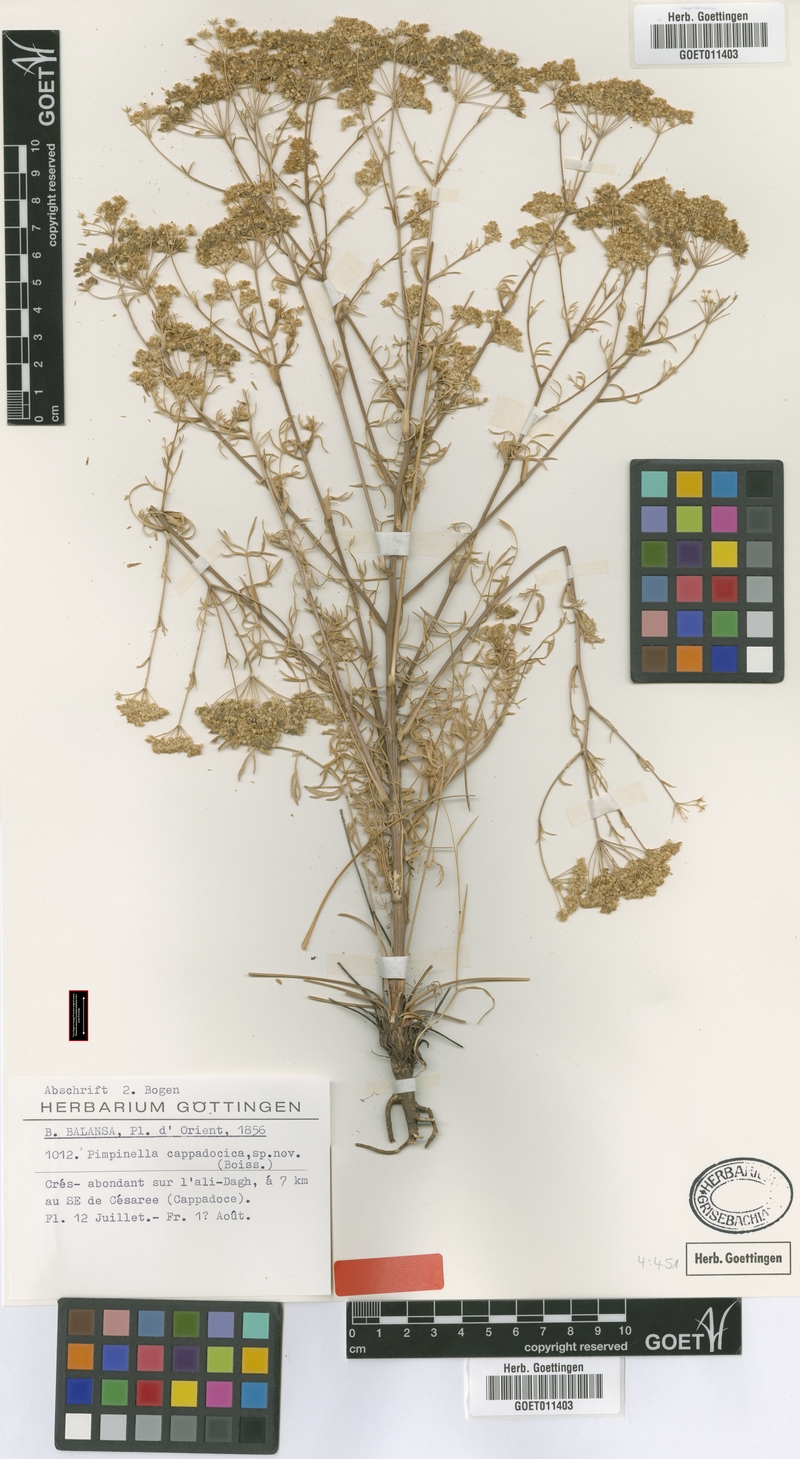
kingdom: Plantae
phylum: Tracheophyta
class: Magnoliopsida
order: Apiales
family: Apiaceae
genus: Pimpinella
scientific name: Pimpinella corymbosa
